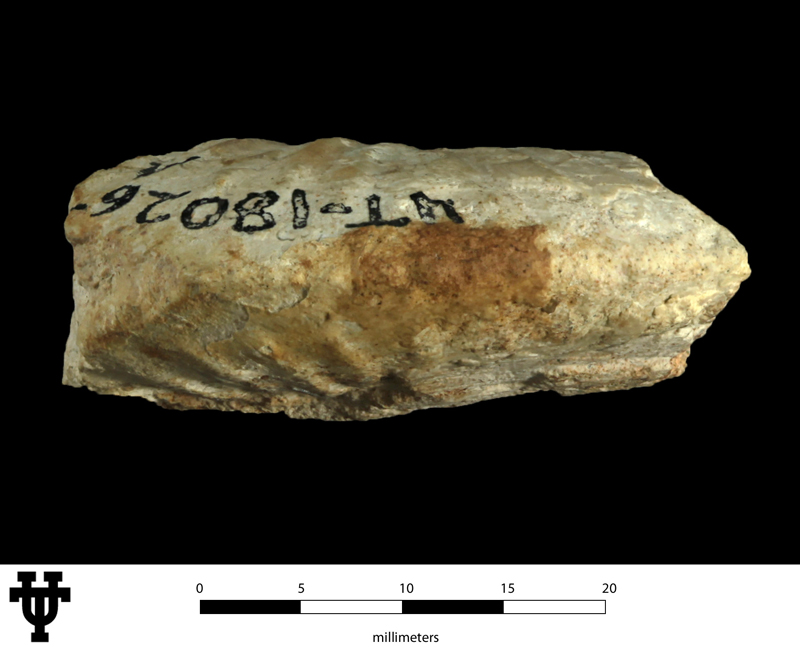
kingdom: Animalia
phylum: Mollusca
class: Cephalopoda
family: Lyelliceratidae
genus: Budaiceras
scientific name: Budaiceras
